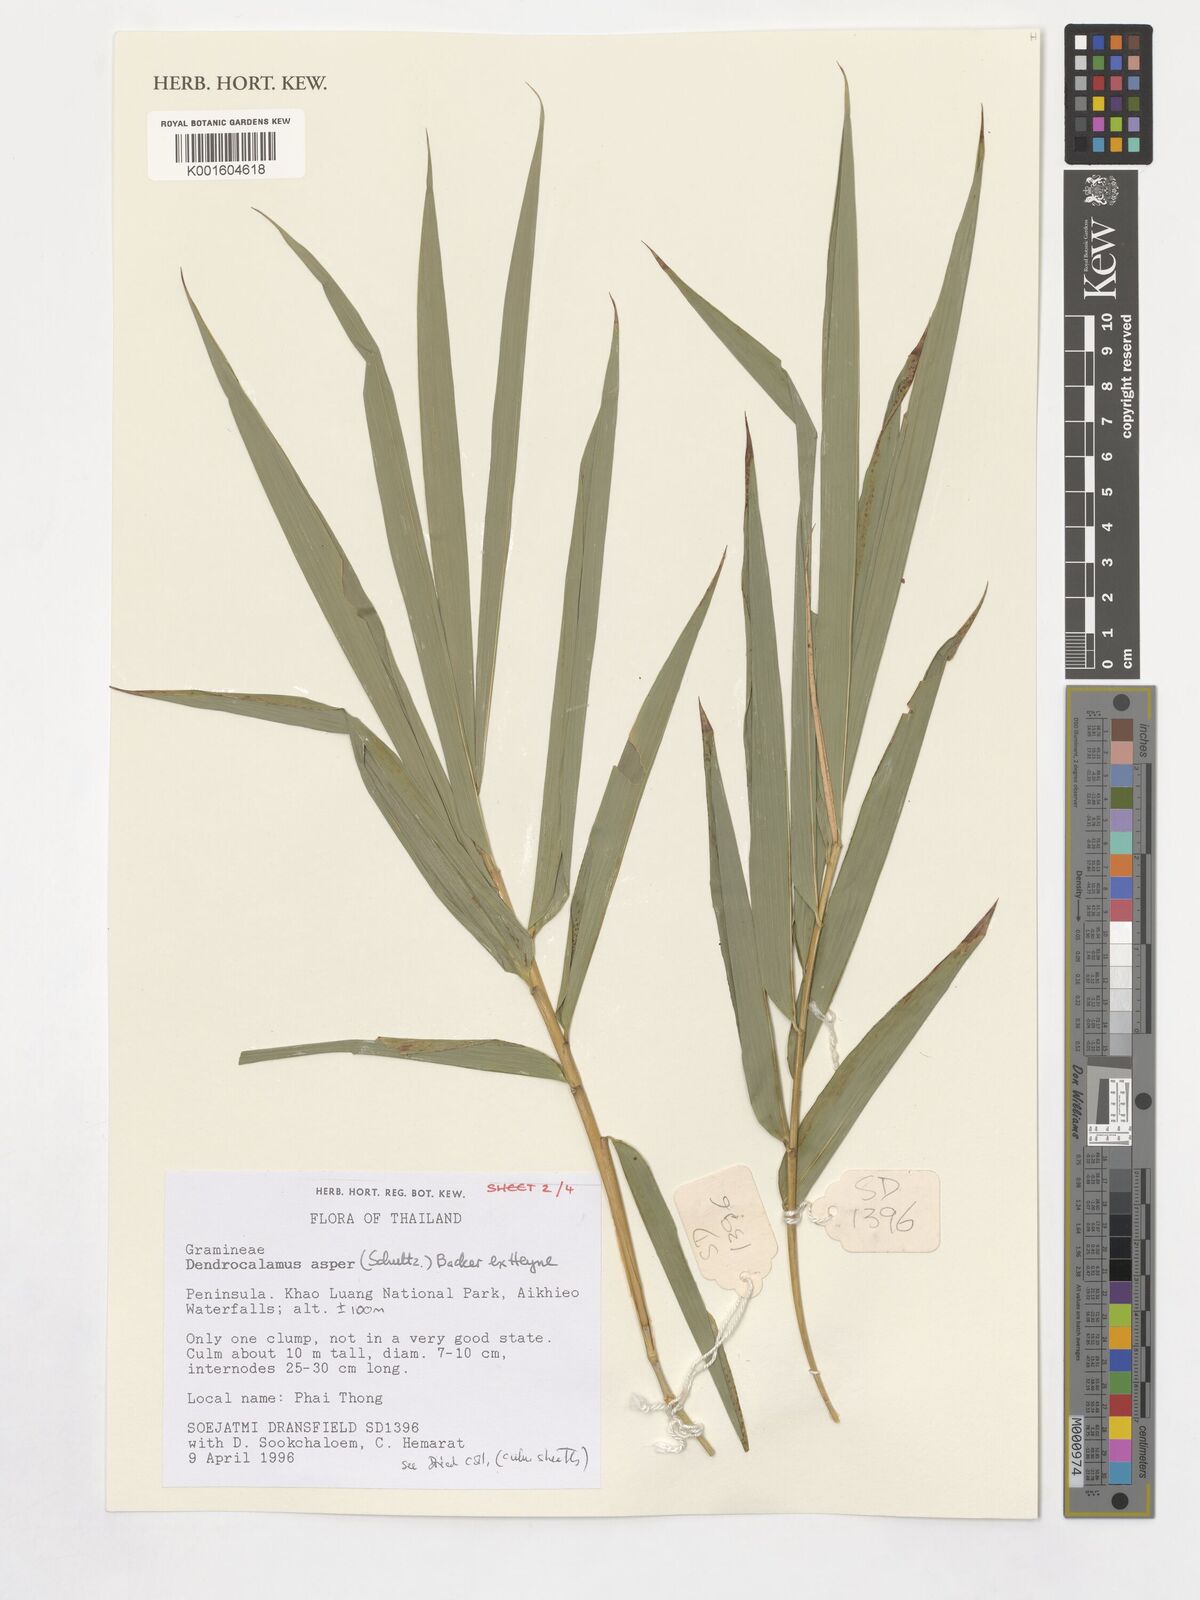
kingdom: Plantae
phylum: Tracheophyta
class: Liliopsida
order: Poales
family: Poaceae
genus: Dendrocalamus
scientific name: Dendrocalamus asper
